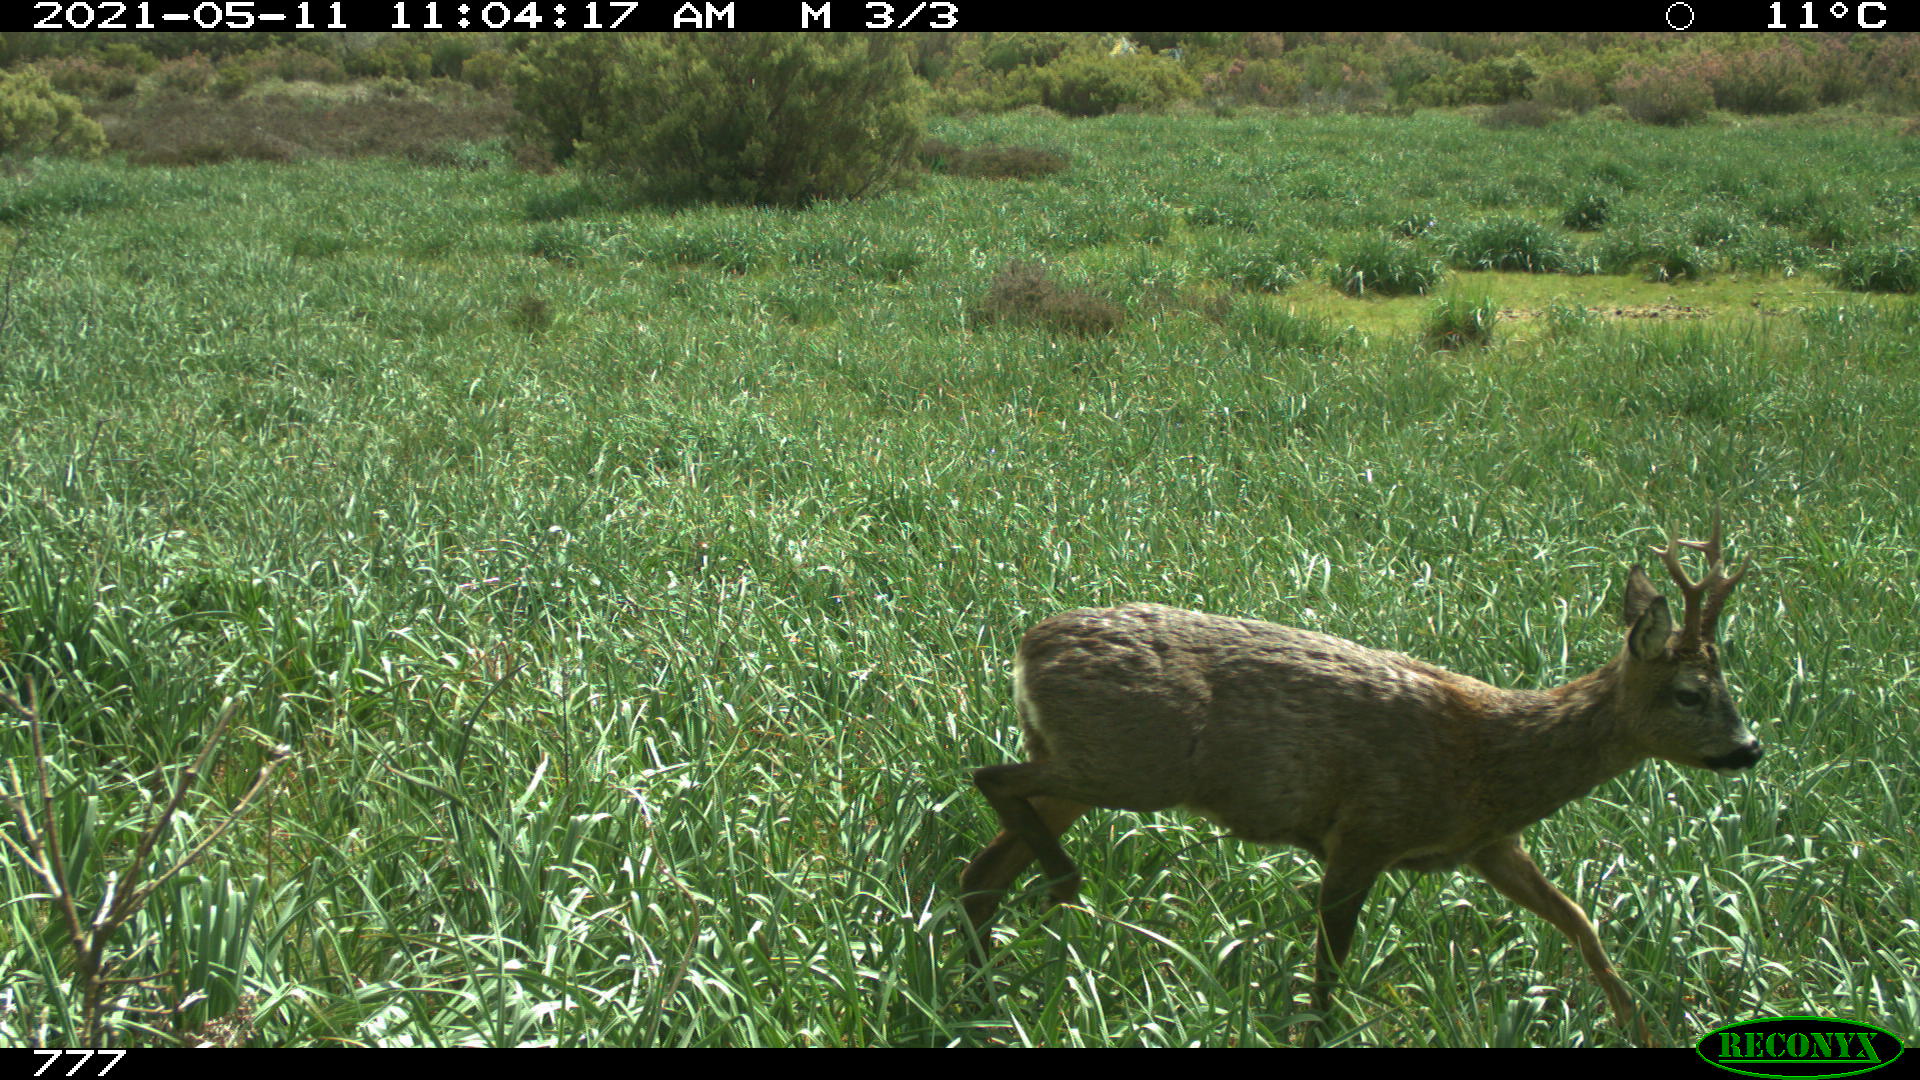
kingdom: Animalia
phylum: Chordata
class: Mammalia
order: Artiodactyla
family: Cervidae
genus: Capreolus
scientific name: Capreolus capreolus
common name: Western roe deer
